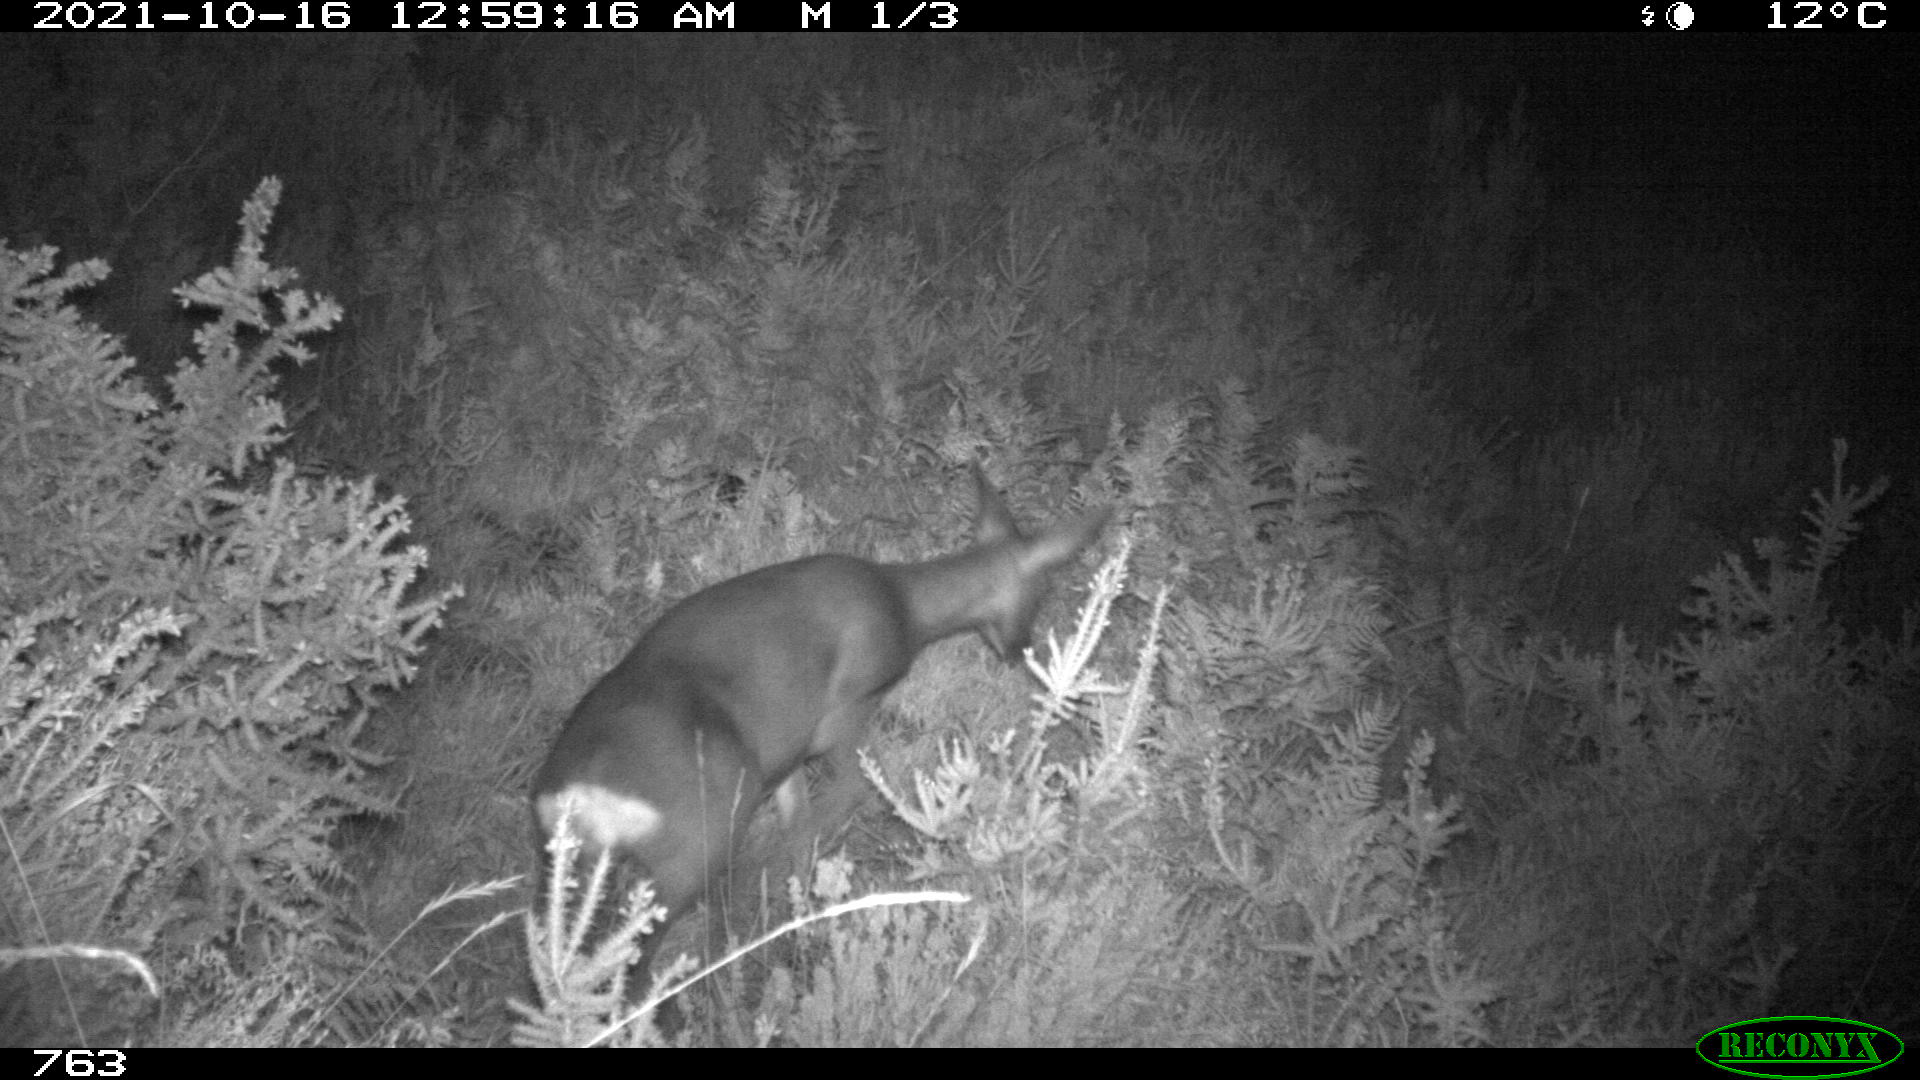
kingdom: Animalia
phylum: Chordata
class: Mammalia
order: Artiodactyla
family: Cervidae
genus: Capreolus
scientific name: Capreolus capreolus
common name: Western roe deer
